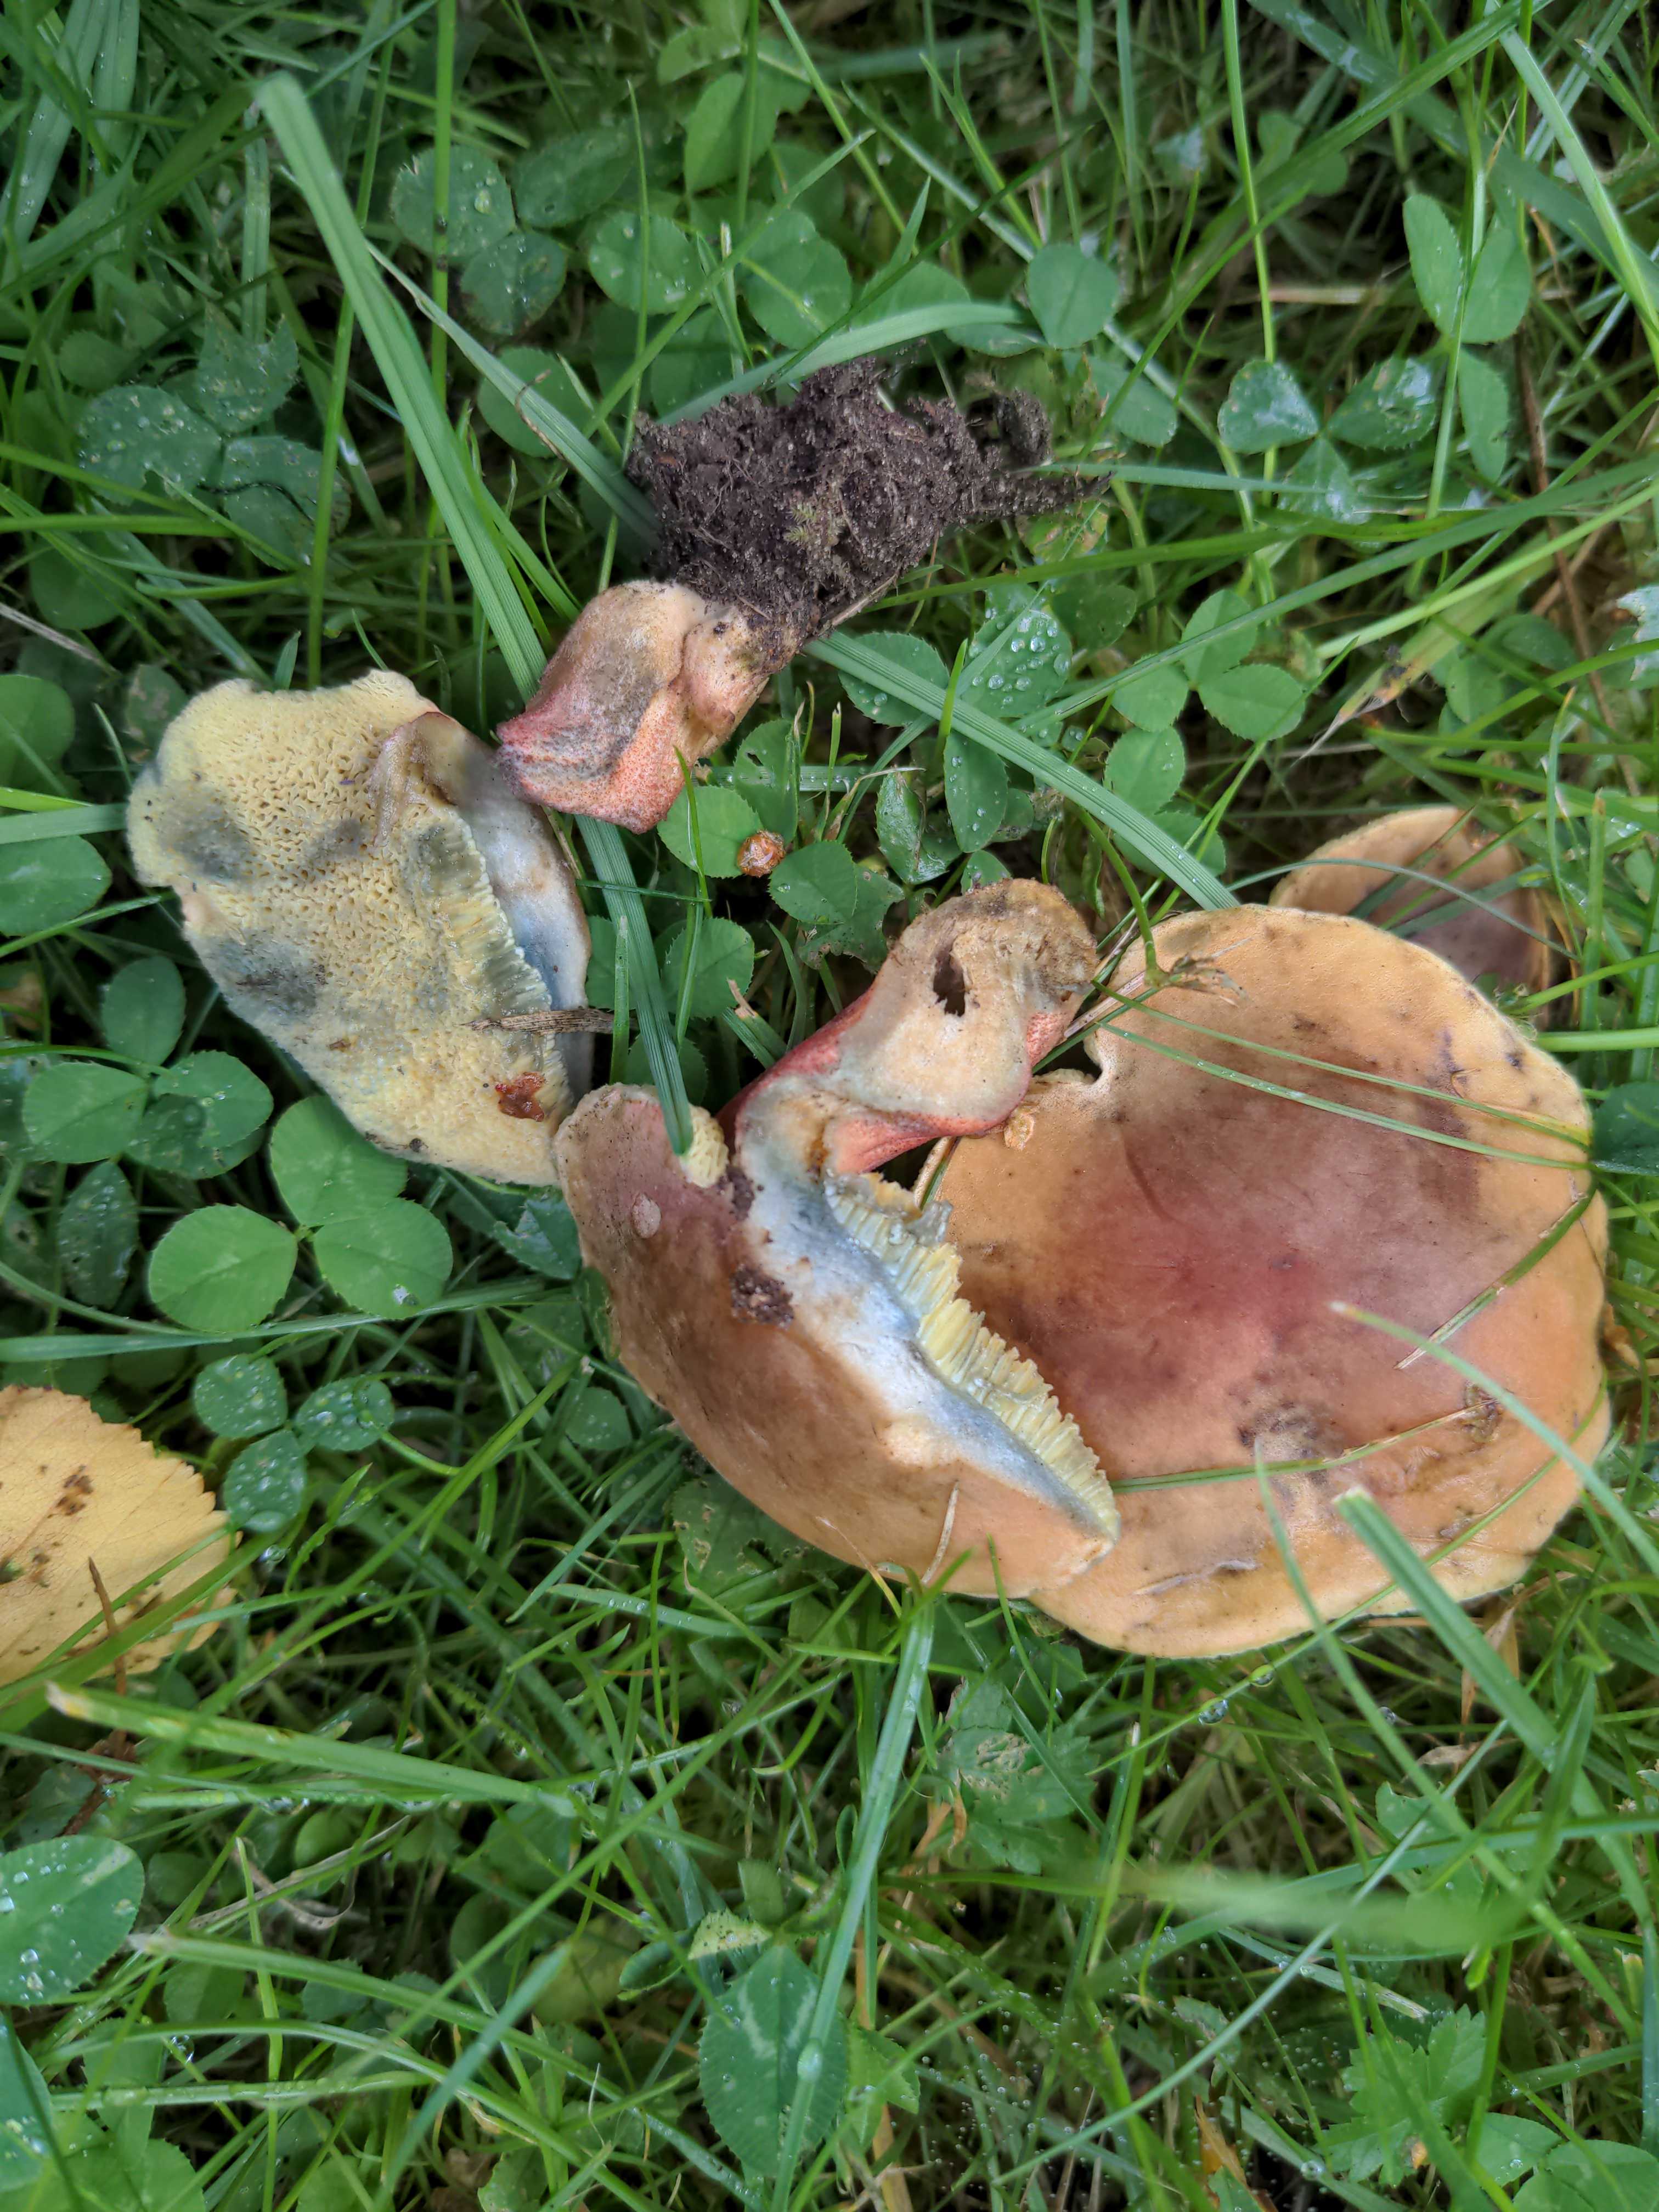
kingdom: Fungi
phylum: Basidiomycota
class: Agaricomycetes
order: Boletales
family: Boletaceae
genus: Hortiboletus
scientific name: Hortiboletus bubalinus
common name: aurora-rørhat
